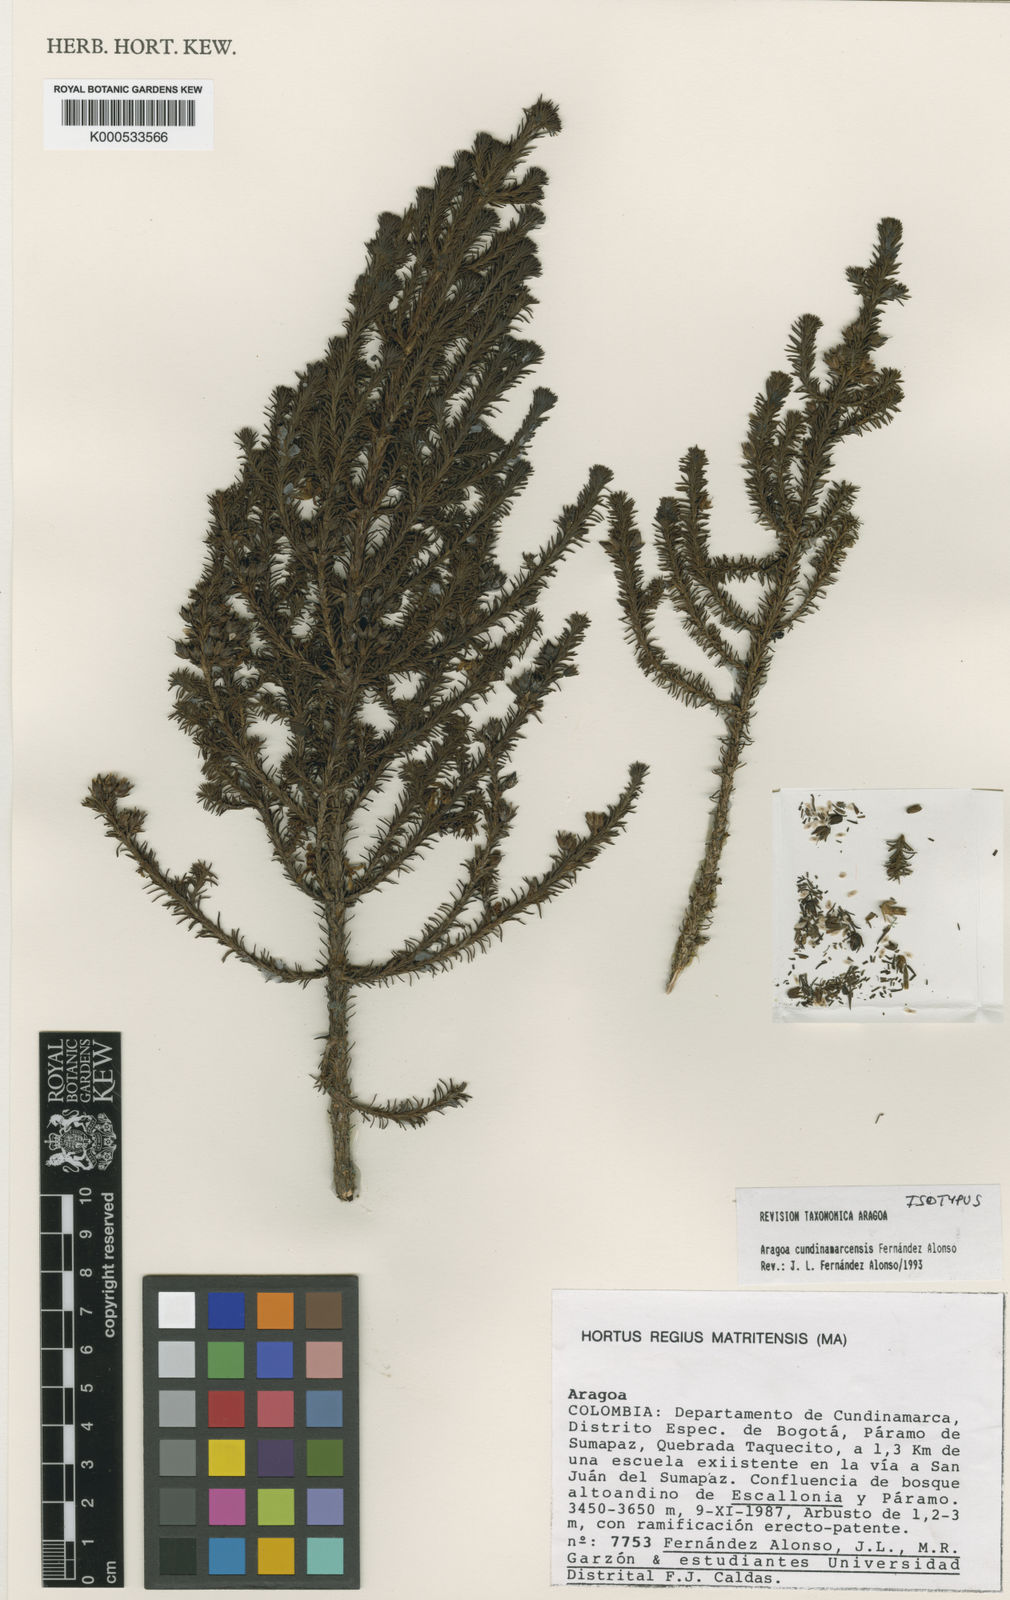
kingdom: Plantae
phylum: Tracheophyta
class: Magnoliopsida
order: Lamiales
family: Plantaginaceae
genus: Aragoa
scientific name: Aragoa cundinamarcensis
